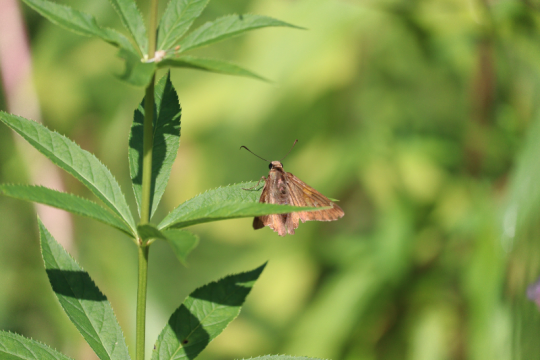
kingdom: Animalia
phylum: Arthropoda
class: Insecta
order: Lepidoptera
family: Hesperiidae
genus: Epargyreus
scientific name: Epargyreus clarus
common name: Silver-spotted Skipper
